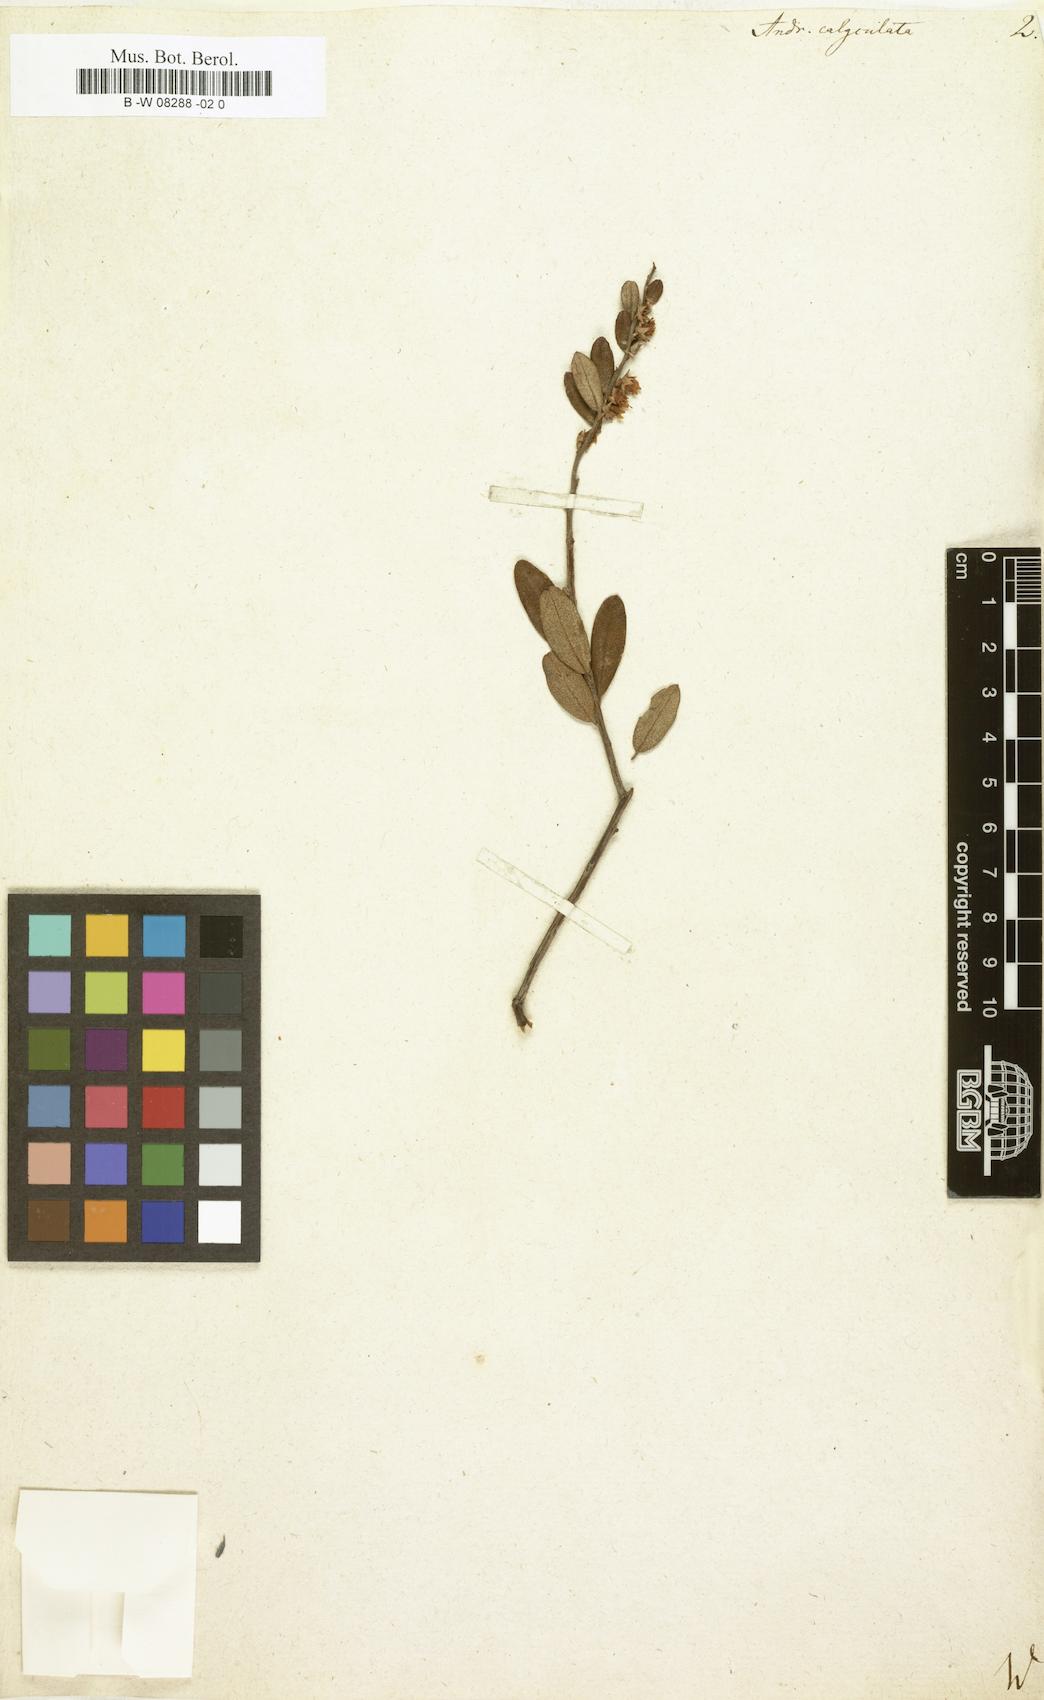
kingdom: Plantae
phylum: Tracheophyta
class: Magnoliopsida
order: Ericales
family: Ericaceae
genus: Chamaedaphne
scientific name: Chamaedaphne calyculata
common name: Leatherleaf
